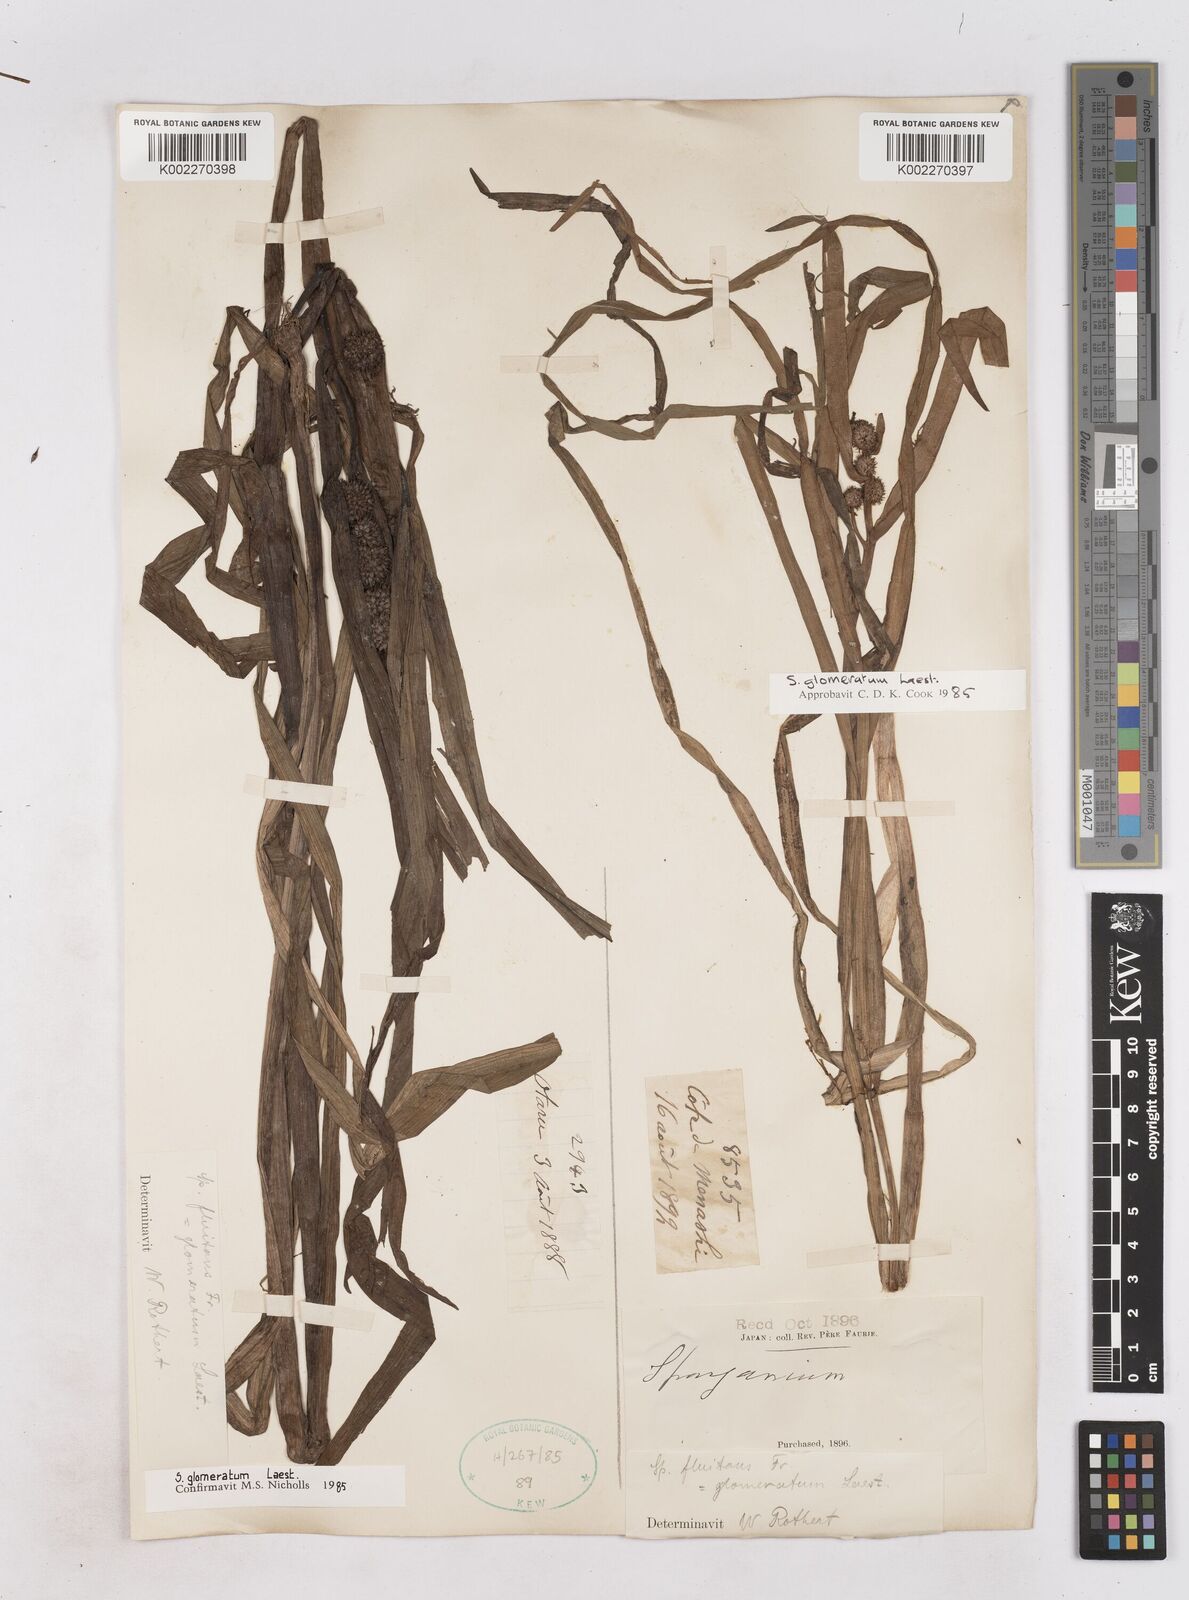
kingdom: Plantae
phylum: Tracheophyta
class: Liliopsida
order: Poales
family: Typhaceae
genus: Sparganium
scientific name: Sparganium glomeratum
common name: Clustered burreed
